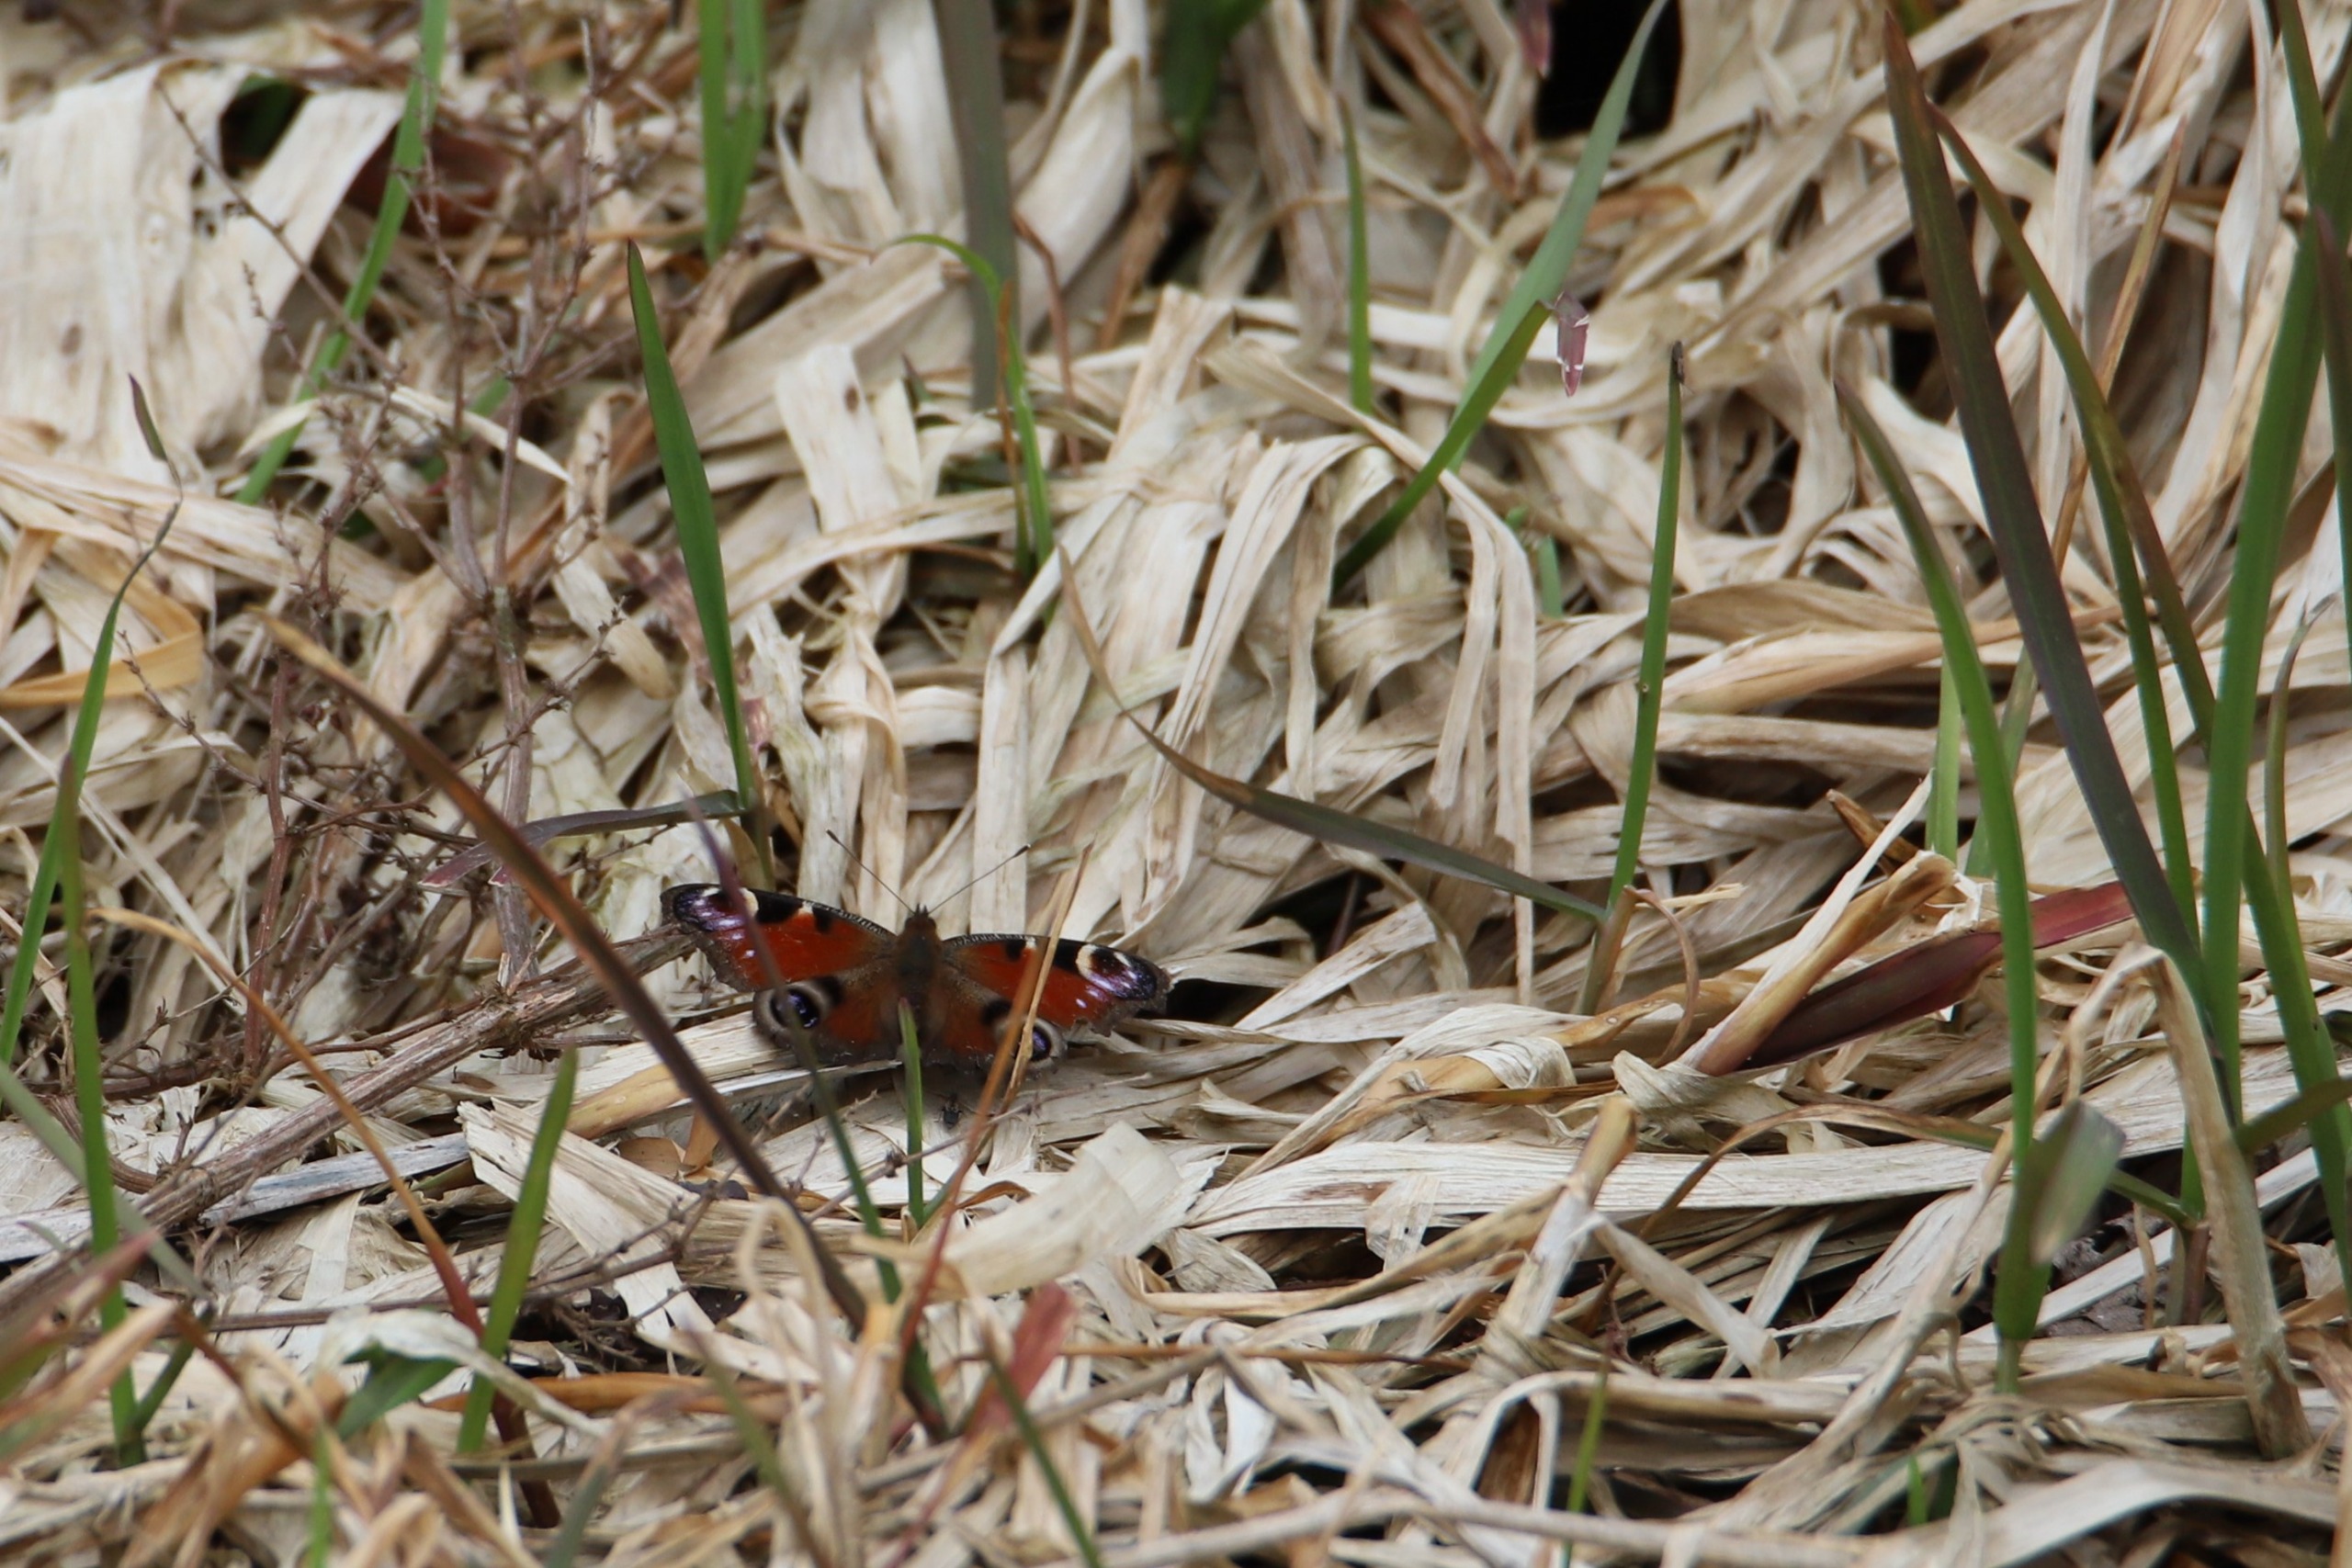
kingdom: Animalia
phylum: Arthropoda
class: Insecta
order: Lepidoptera
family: Nymphalidae
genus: Aglais
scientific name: Aglais io
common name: Dagpåfugleøje
